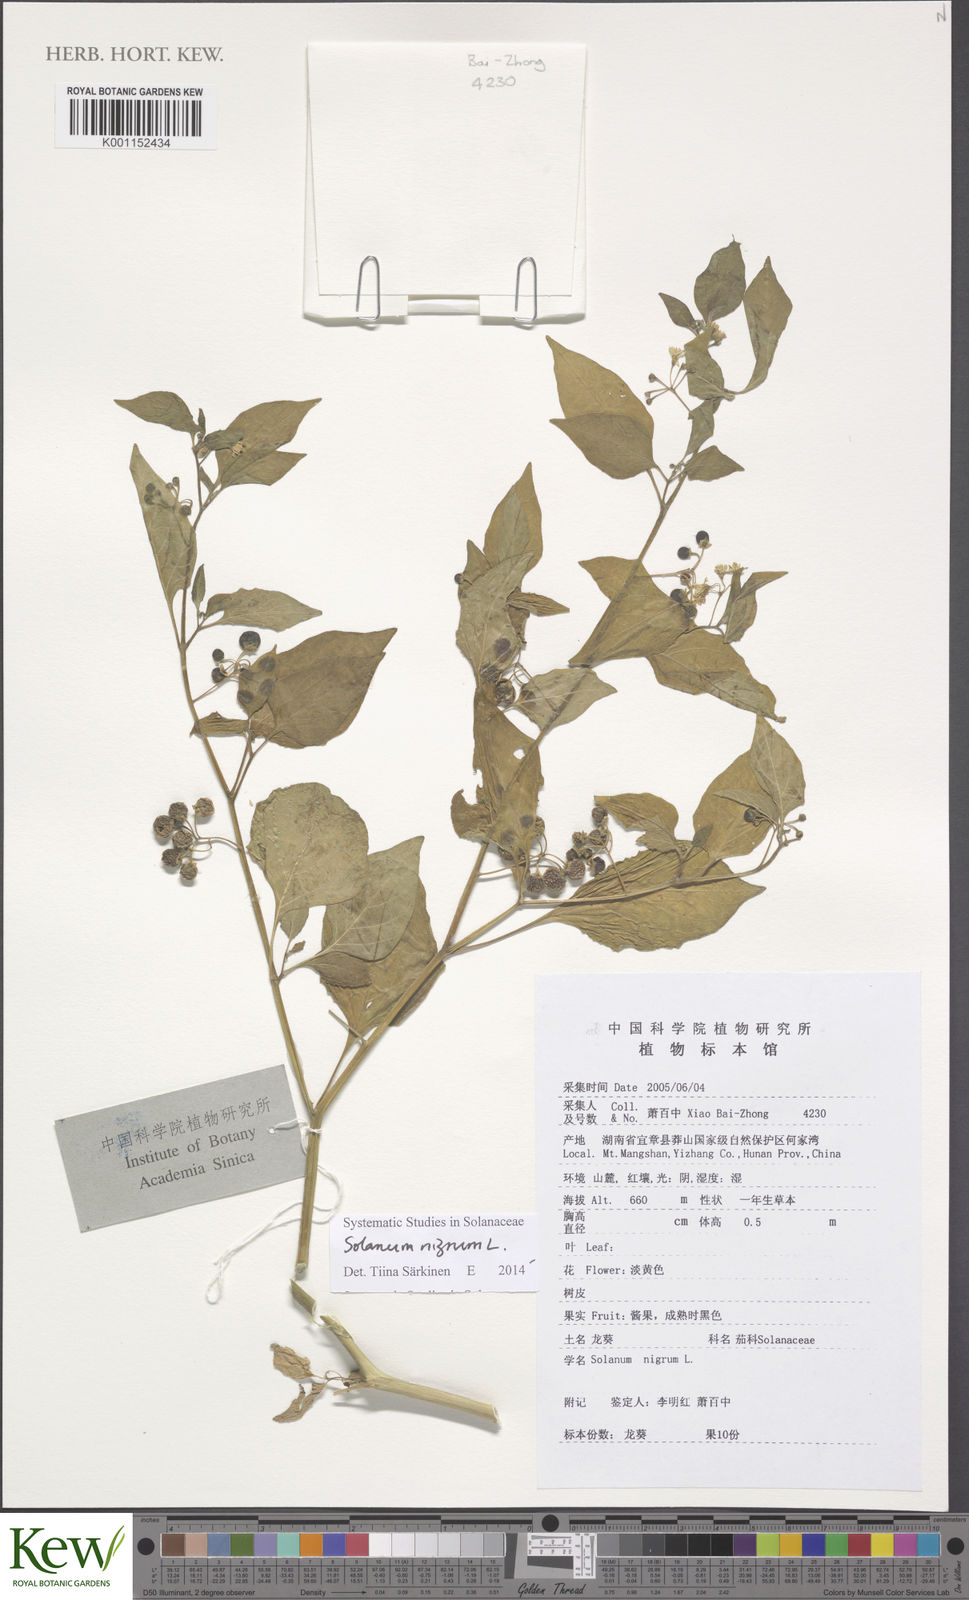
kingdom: Plantae
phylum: Tracheophyta
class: Magnoliopsida
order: Solanales
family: Solanaceae
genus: Solanum
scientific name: Solanum nigrum
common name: Black nightshade
